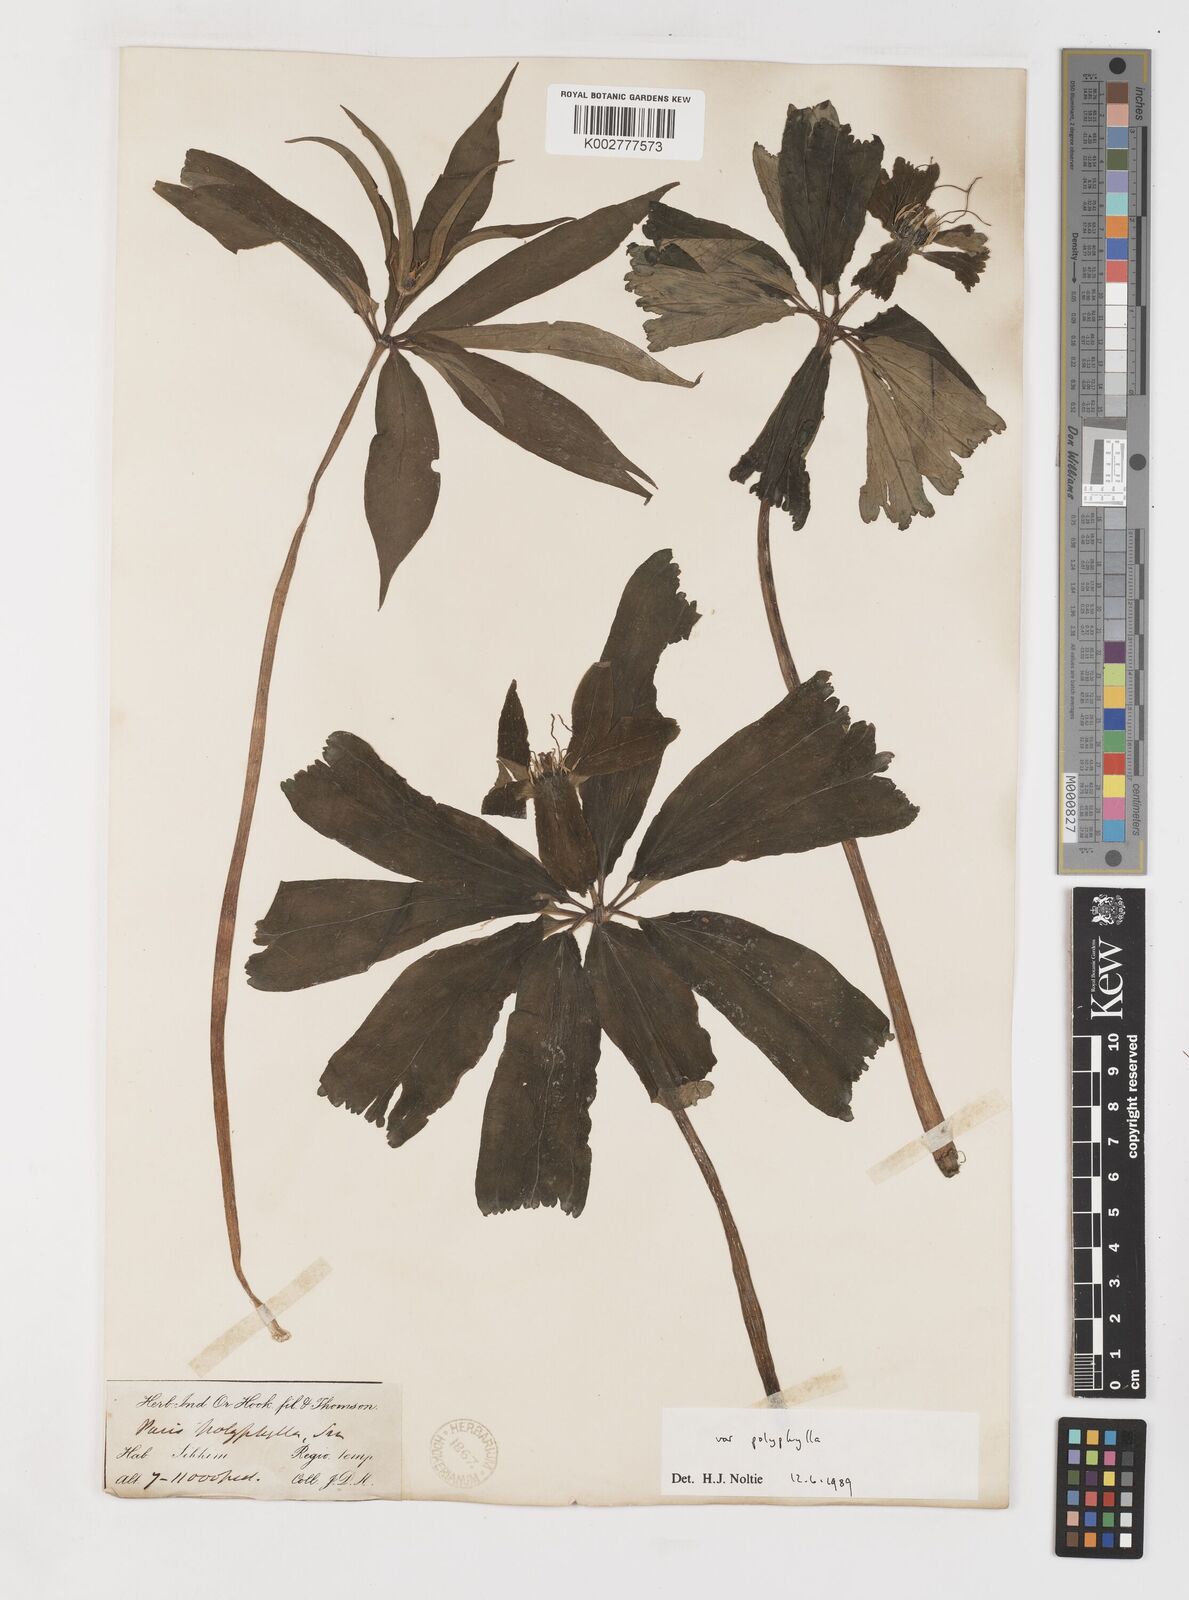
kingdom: Plantae
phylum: Tracheophyta
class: Liliopsida
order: Liliales
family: Melanthiaceae
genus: Paris
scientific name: Paris delavayi
